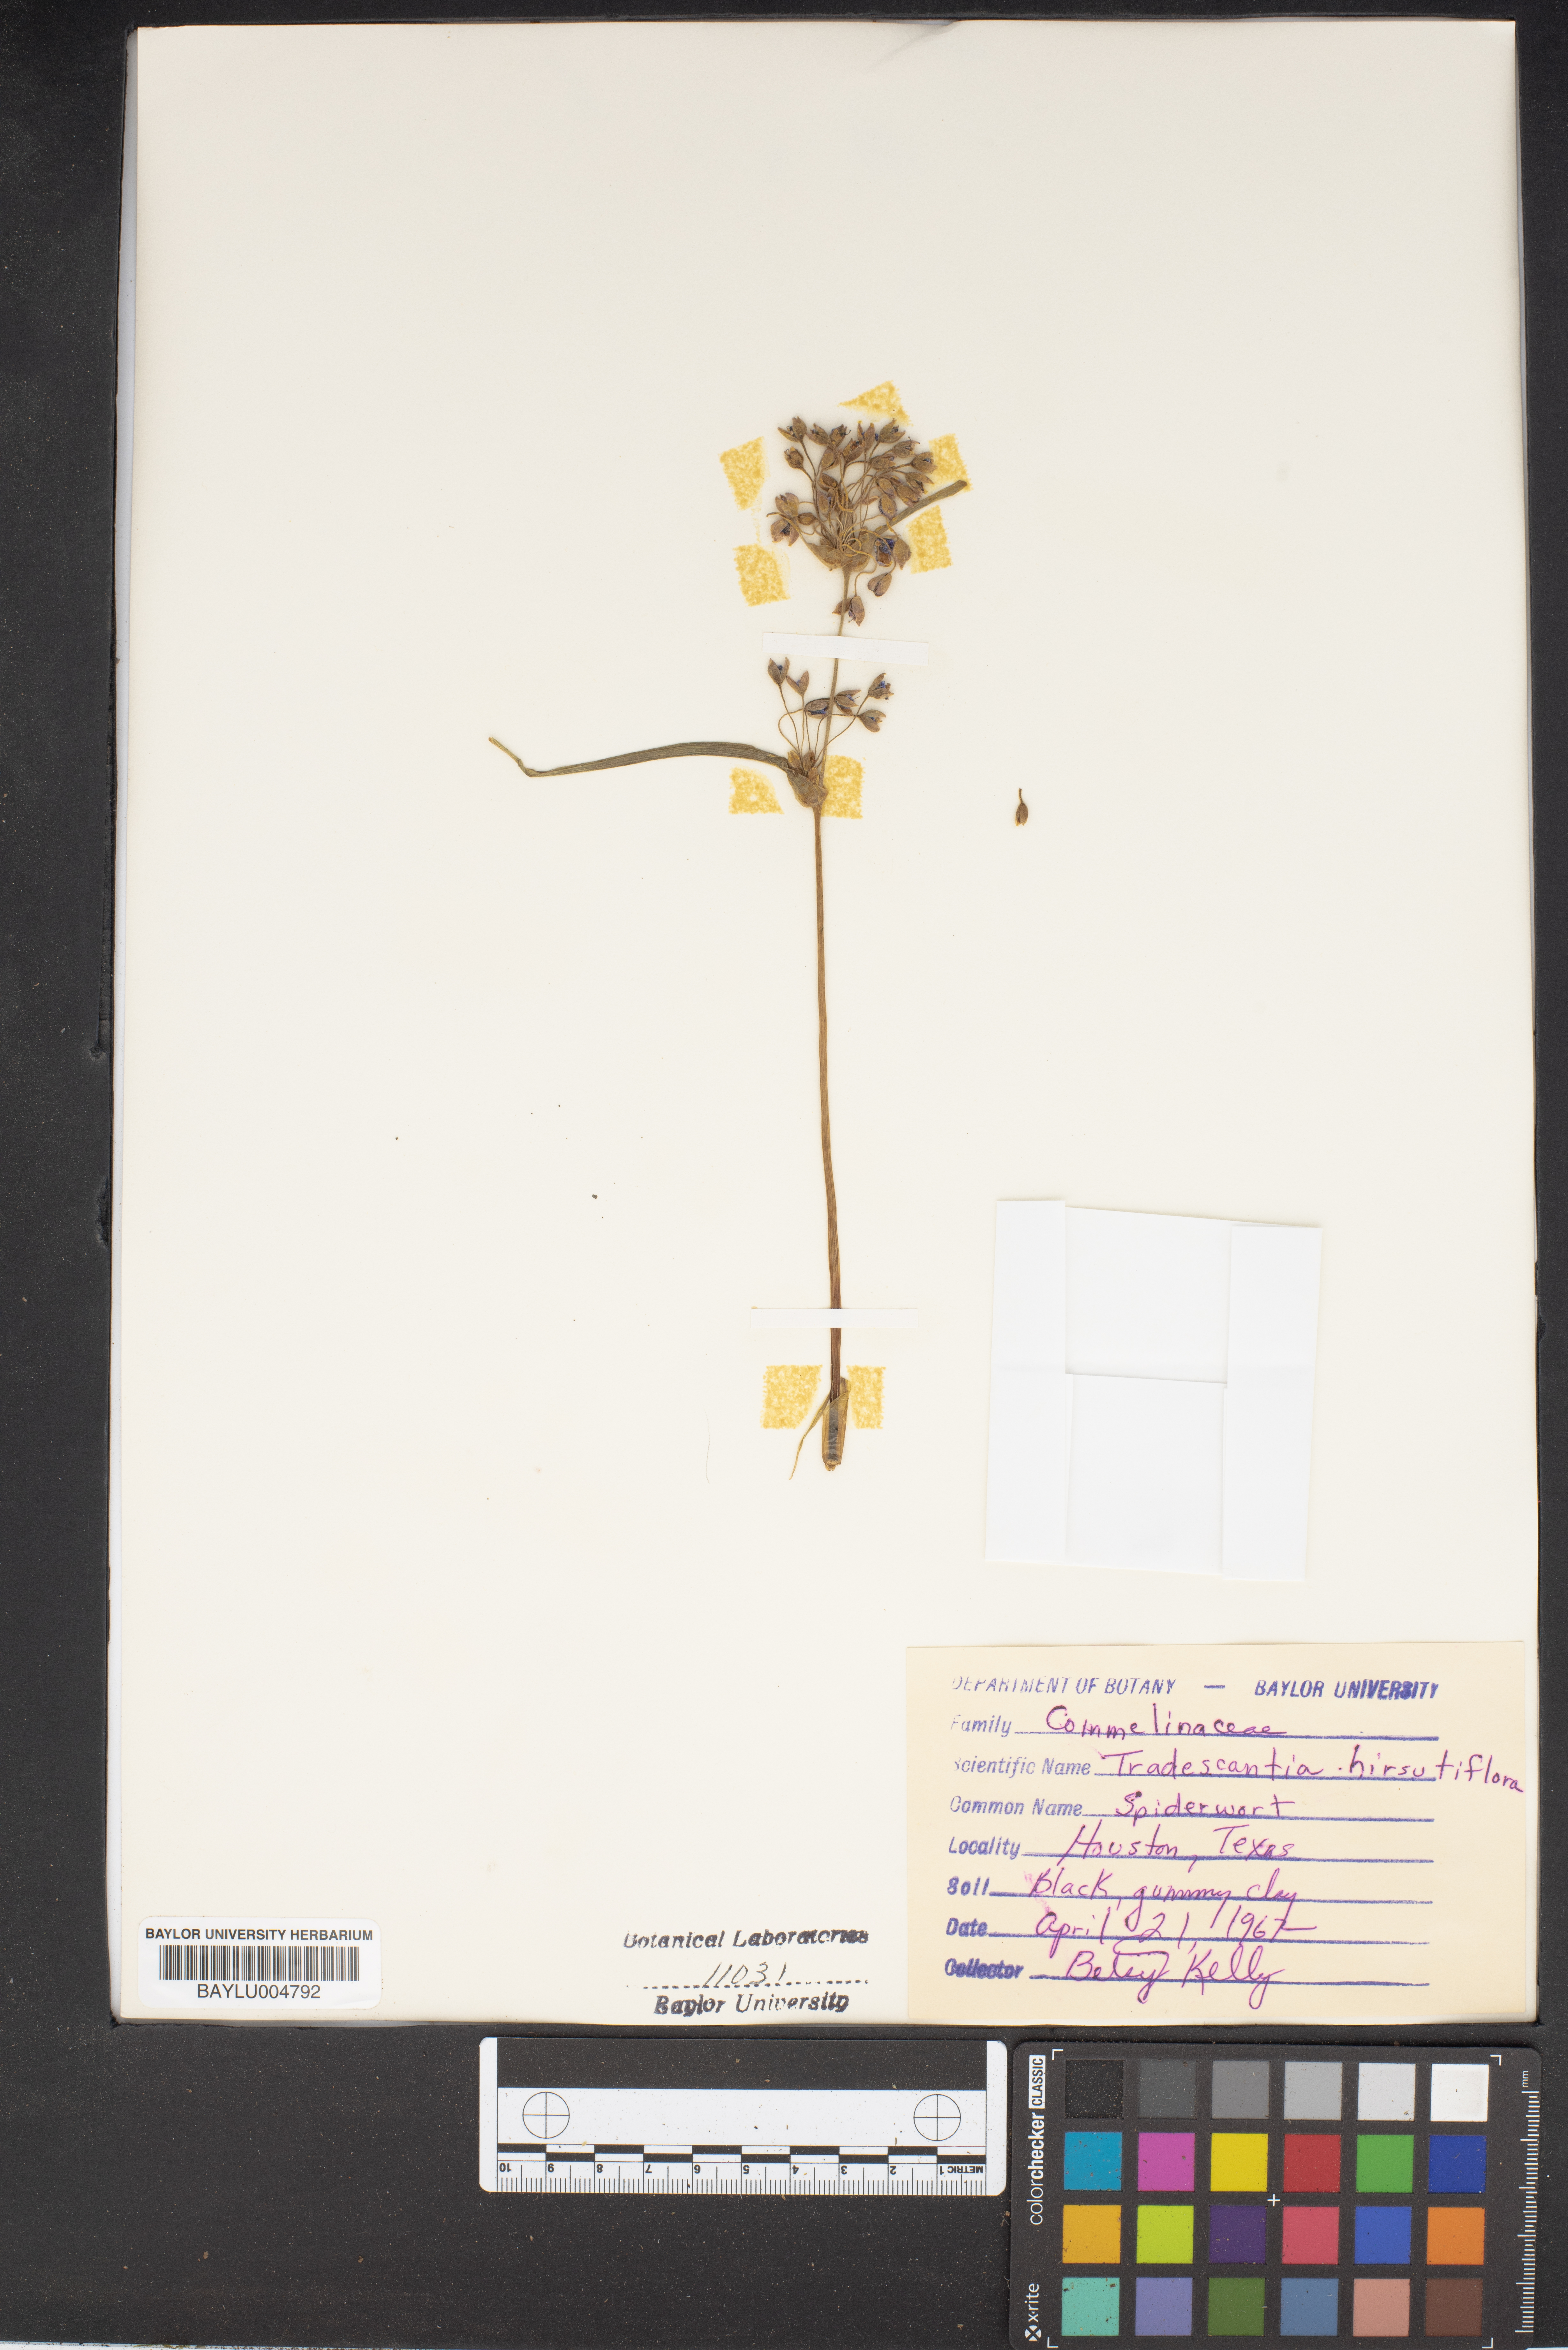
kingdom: Plantae
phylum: Tracheophyta
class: Liliopsida
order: Commelinales
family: Commelinaceae
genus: Tradescantia
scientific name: Tradescantia hirsutiflora
